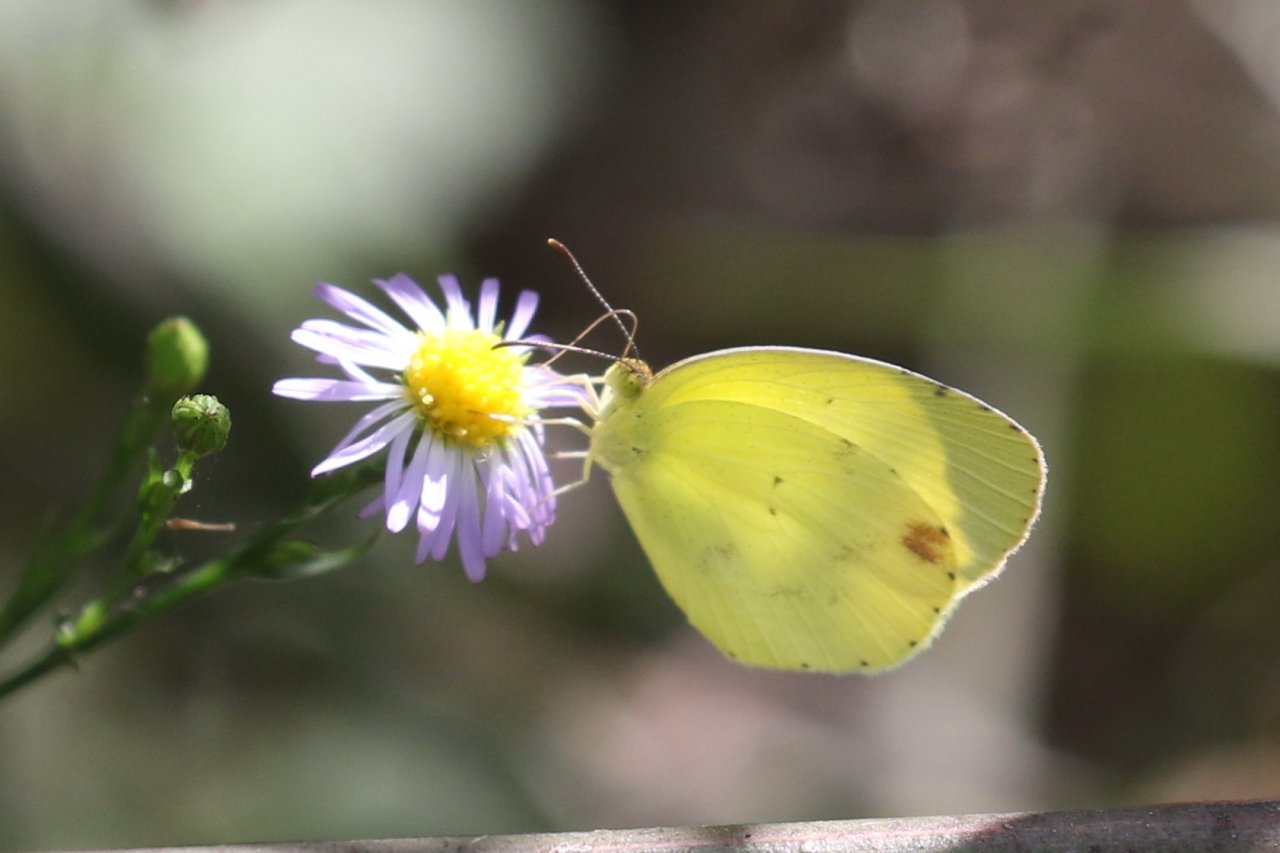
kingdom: Animalia
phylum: Arthropoda
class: Insecta
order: Lepidoptera
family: Pieridae
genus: Pyrisitia
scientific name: Pyrisitia nise
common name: Mimosa Yellow
